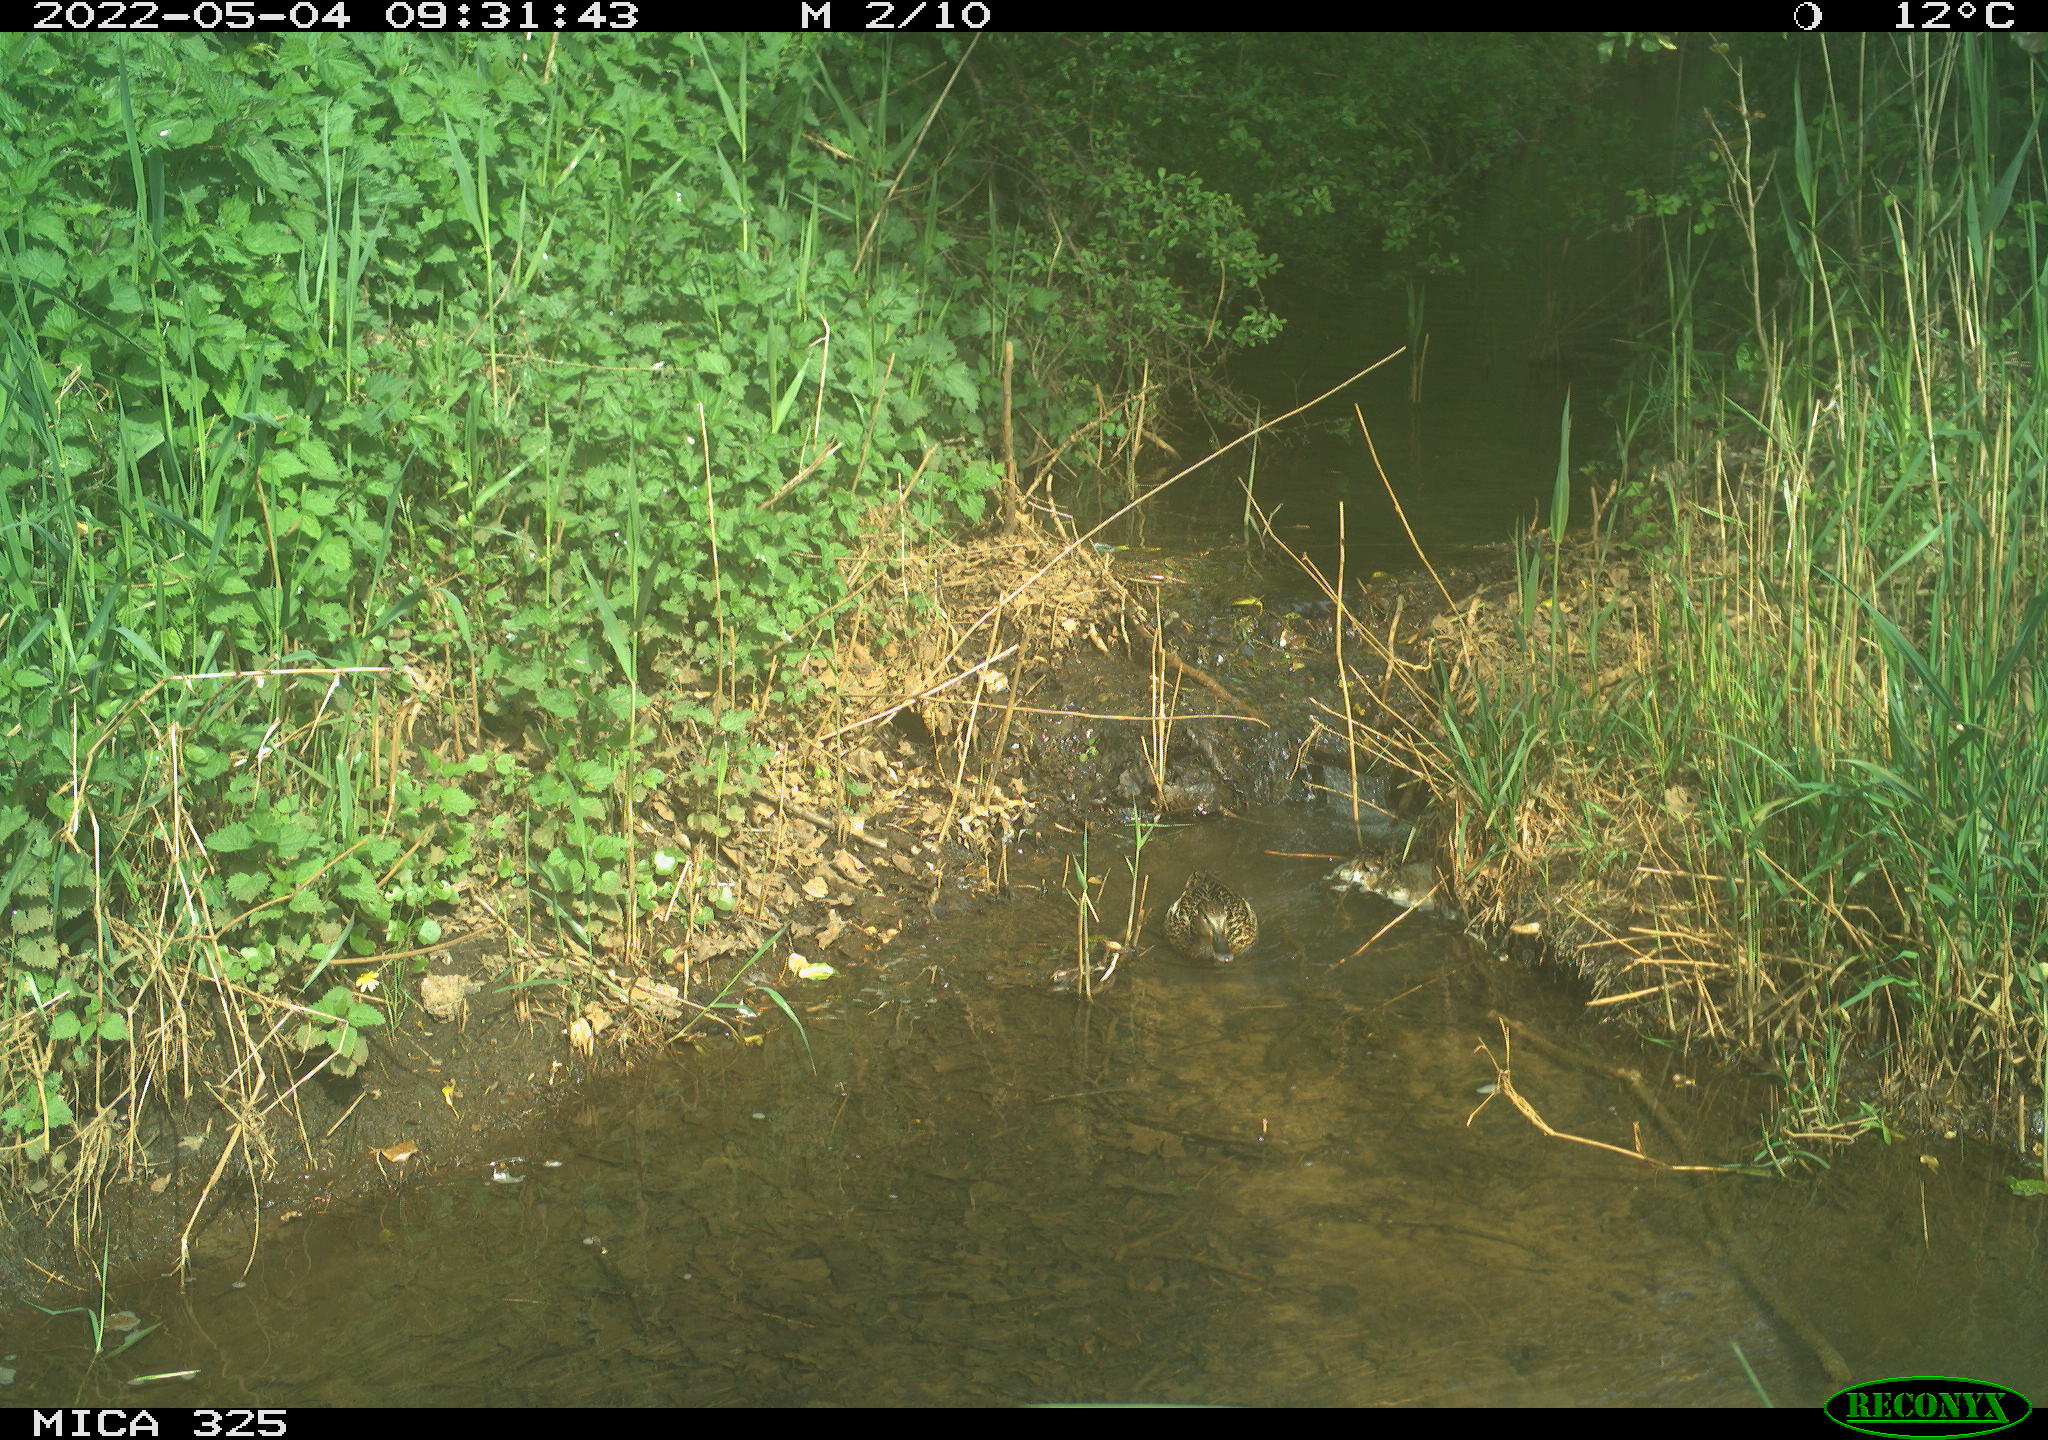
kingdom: Animalia
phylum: Chordata
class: Aves
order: Anseriformes
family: Anatidae
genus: Anas
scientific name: Anas platyrhynchos
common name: Mallard
